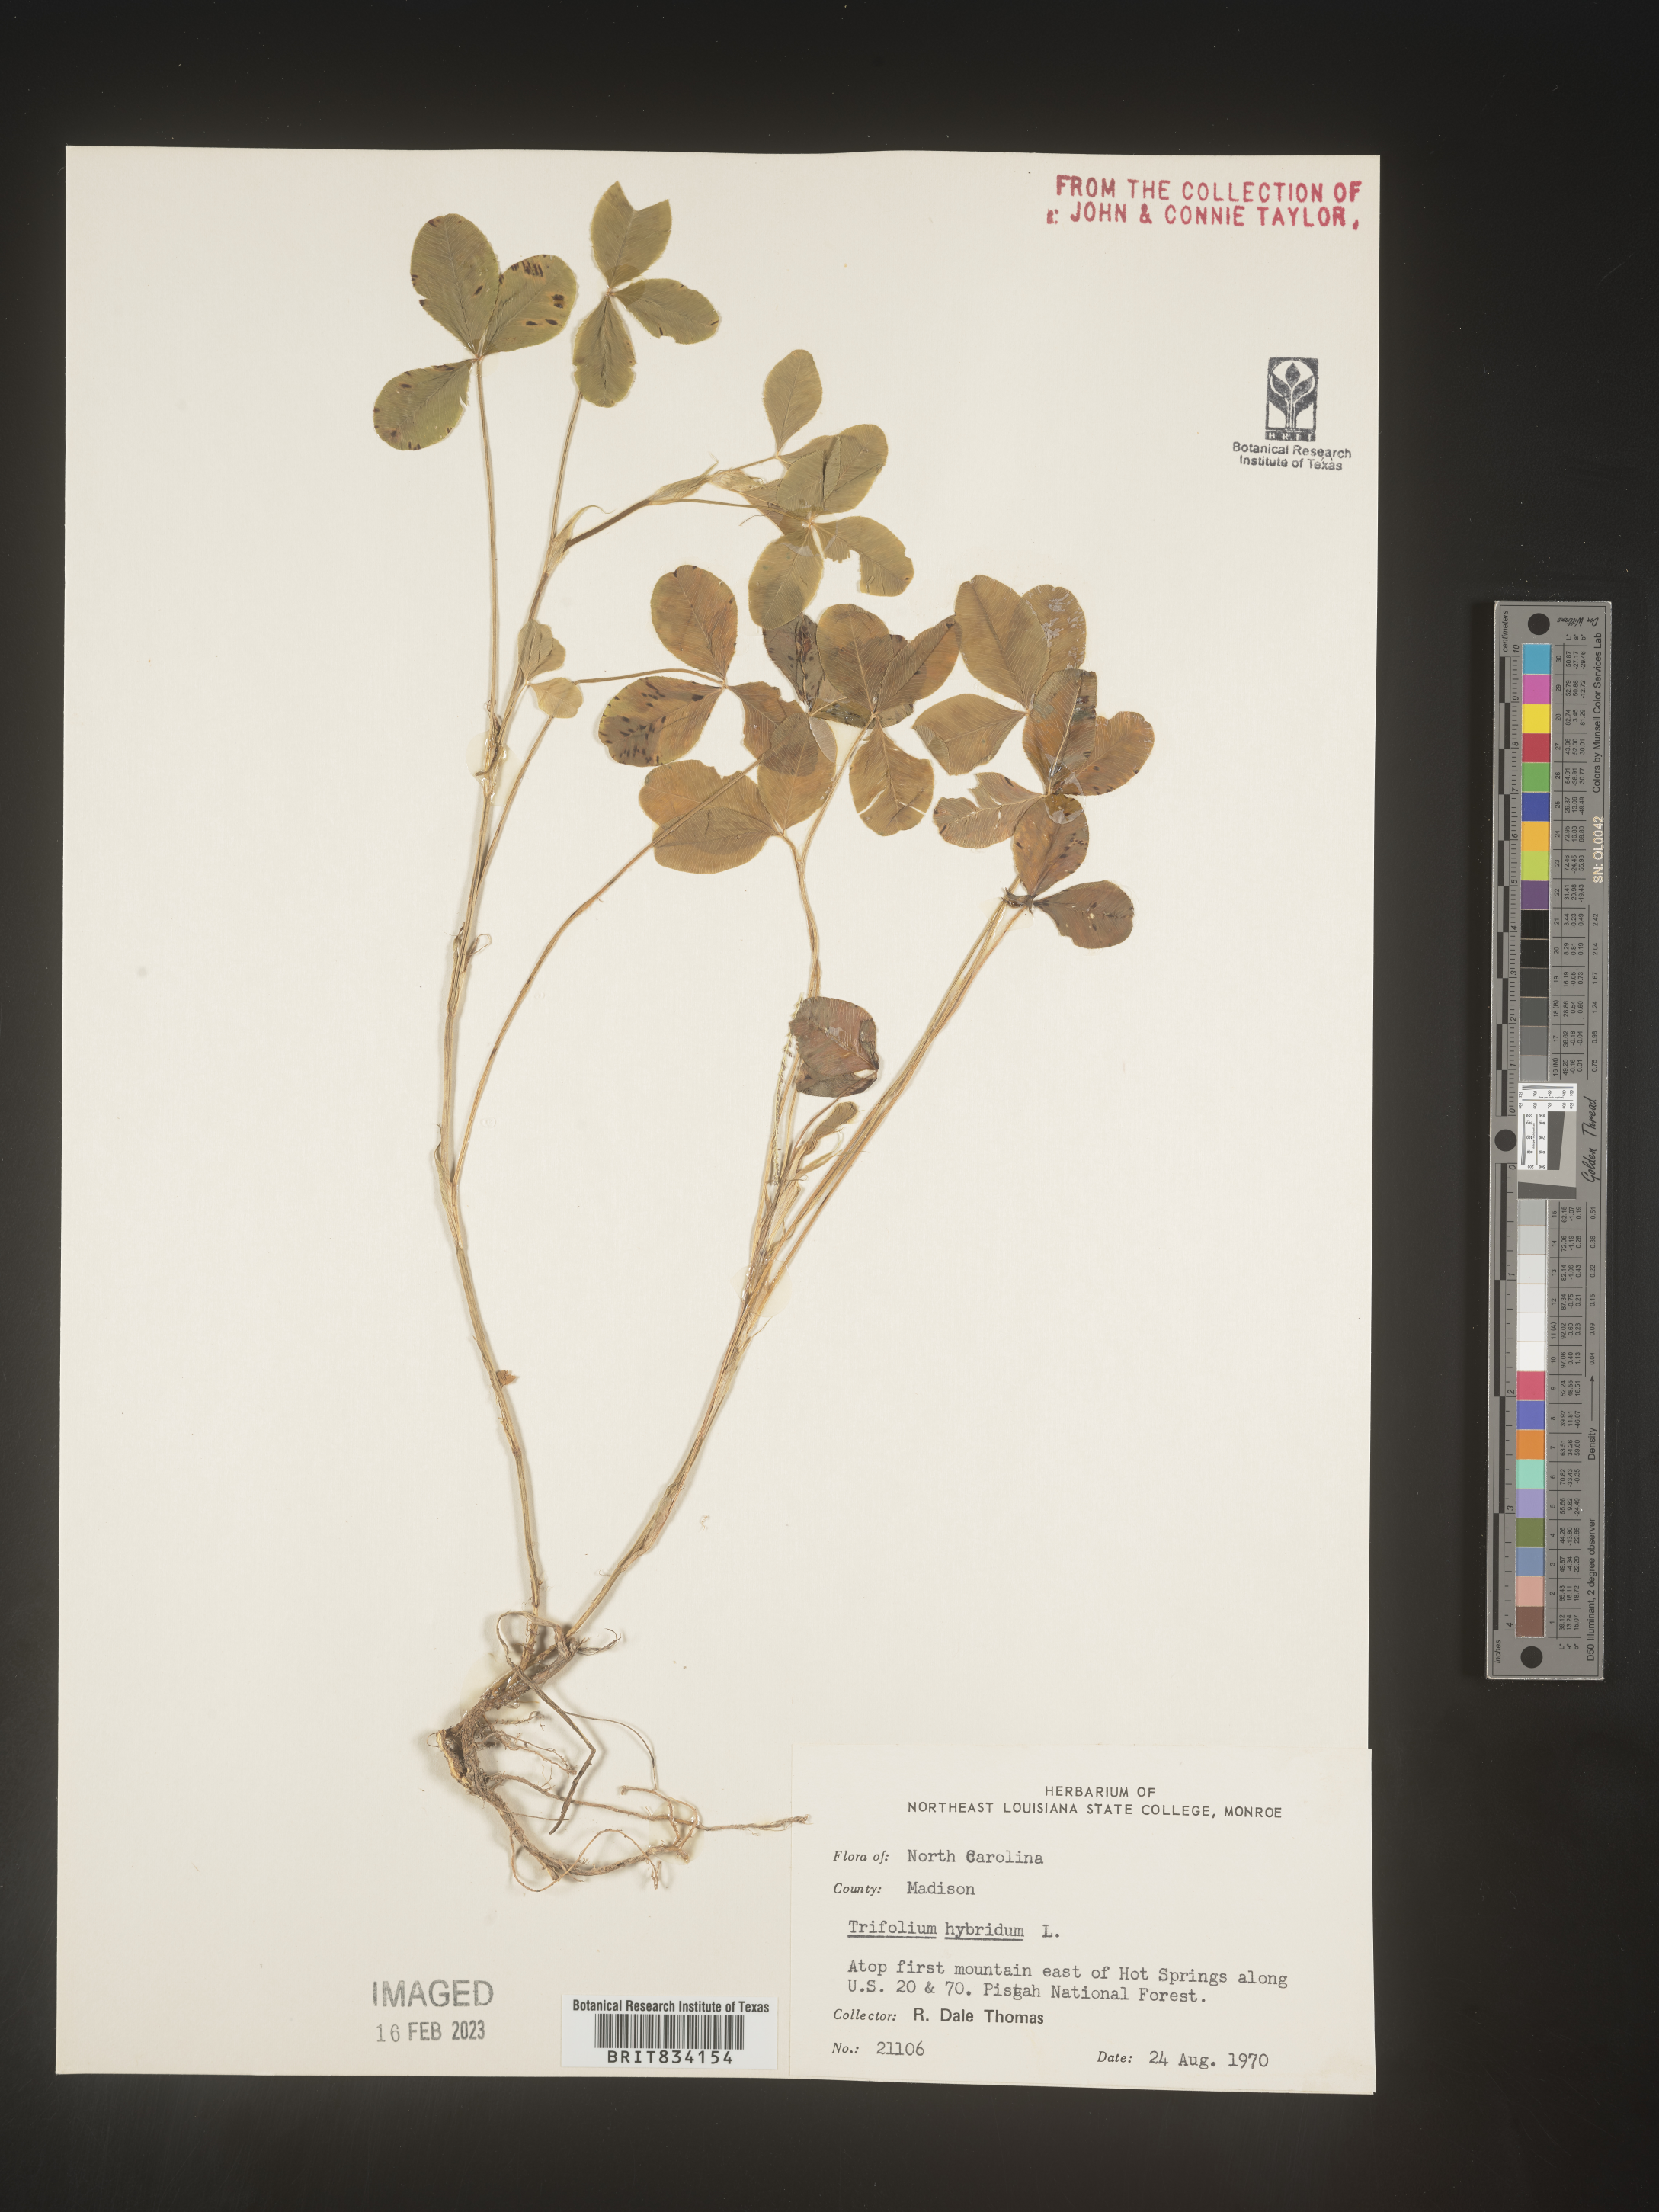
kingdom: Plantae
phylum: Tracheophyta
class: Magnoliopsida
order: Fabales
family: Fabaceae
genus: Trifolium
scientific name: Trifolium hybridum
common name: Alsike clover
